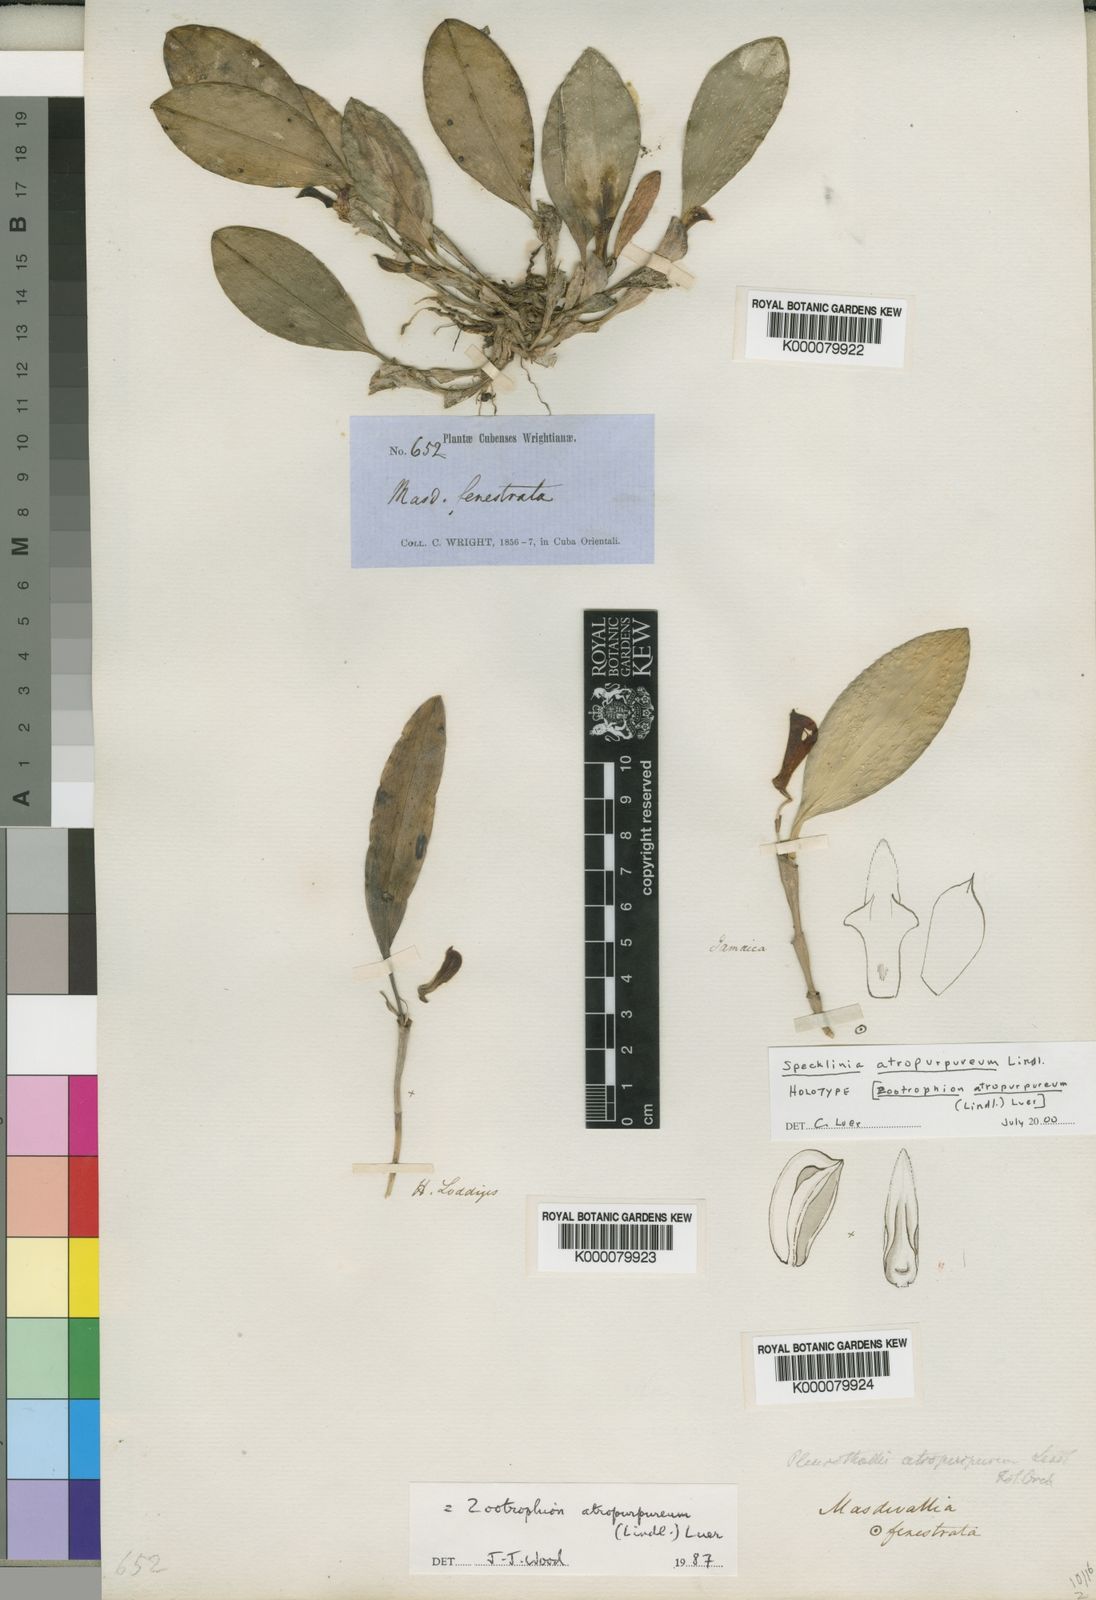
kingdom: Plantae
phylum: Tracheophyta
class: Liliopsida
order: Asparagales
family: Orchidaceae
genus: Zootrophion
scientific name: Zootrophion atropurpureum
